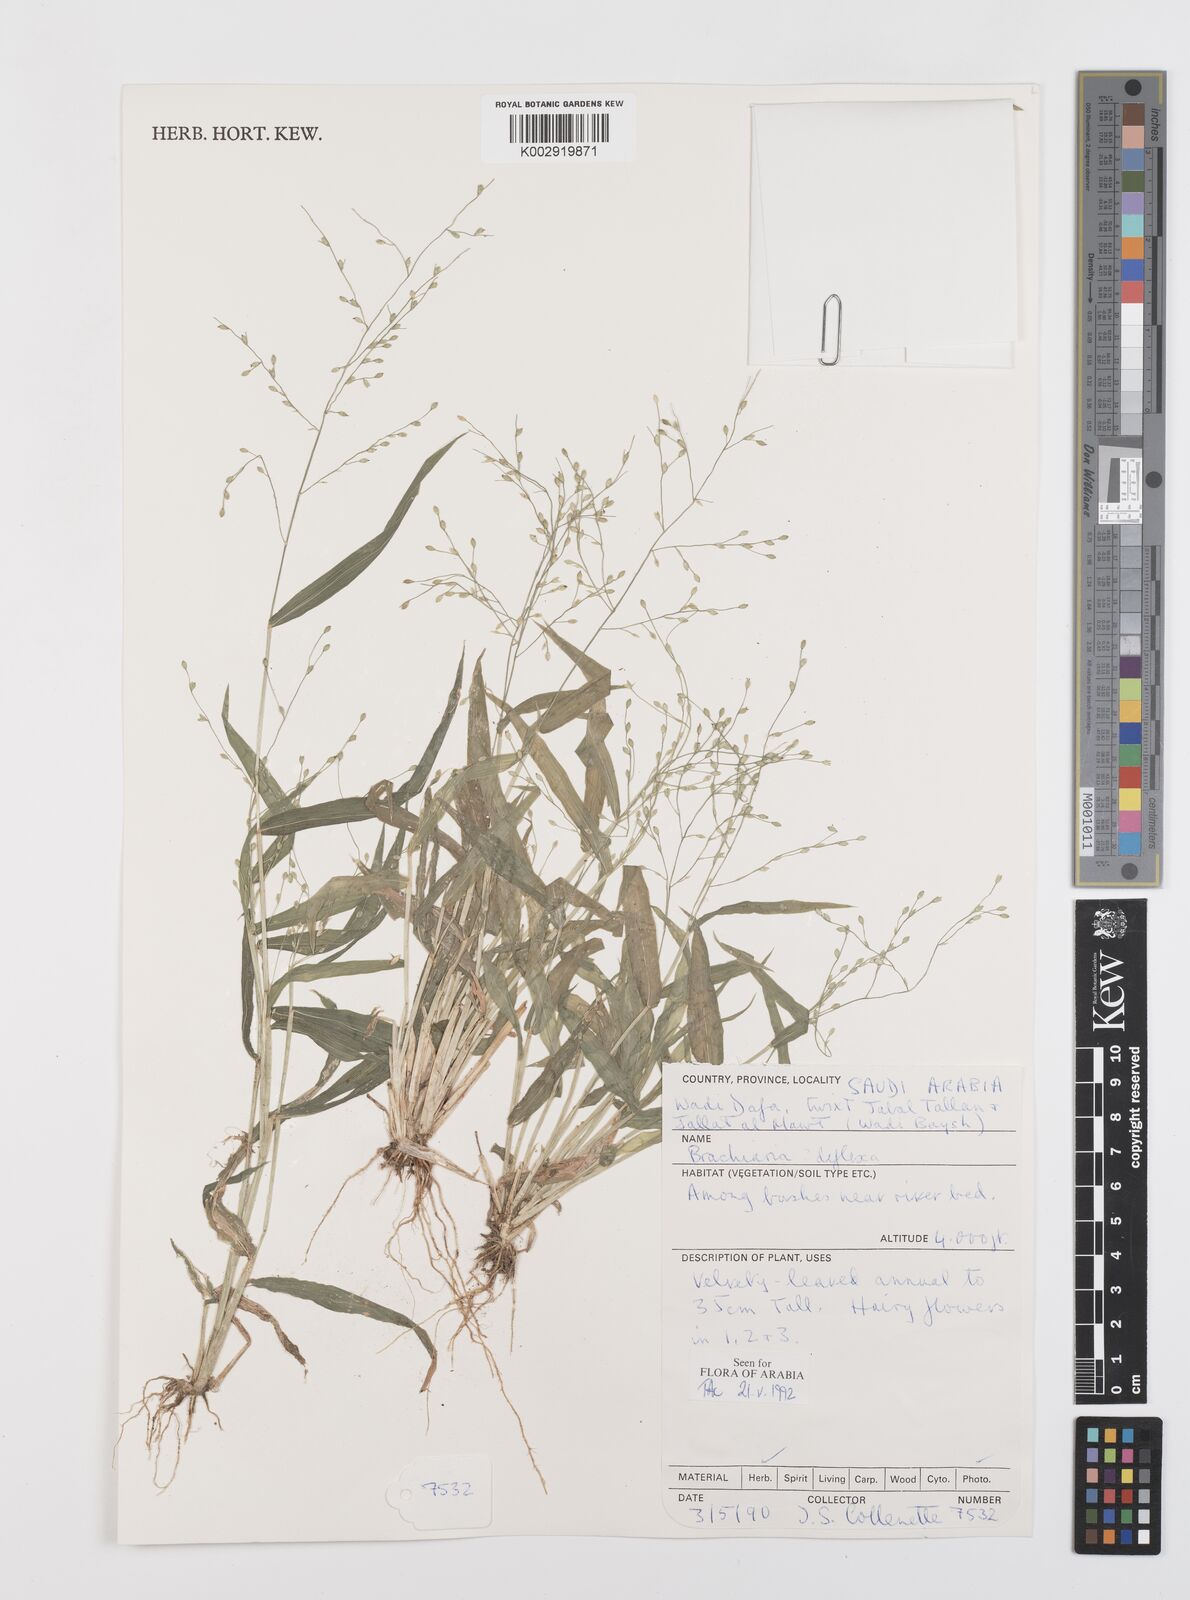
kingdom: Plantae
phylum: Tracheophyta
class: Liliopsida
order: Poales
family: Poaceae
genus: Urochloa
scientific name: Urochloa deflexa
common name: Guinea millet
